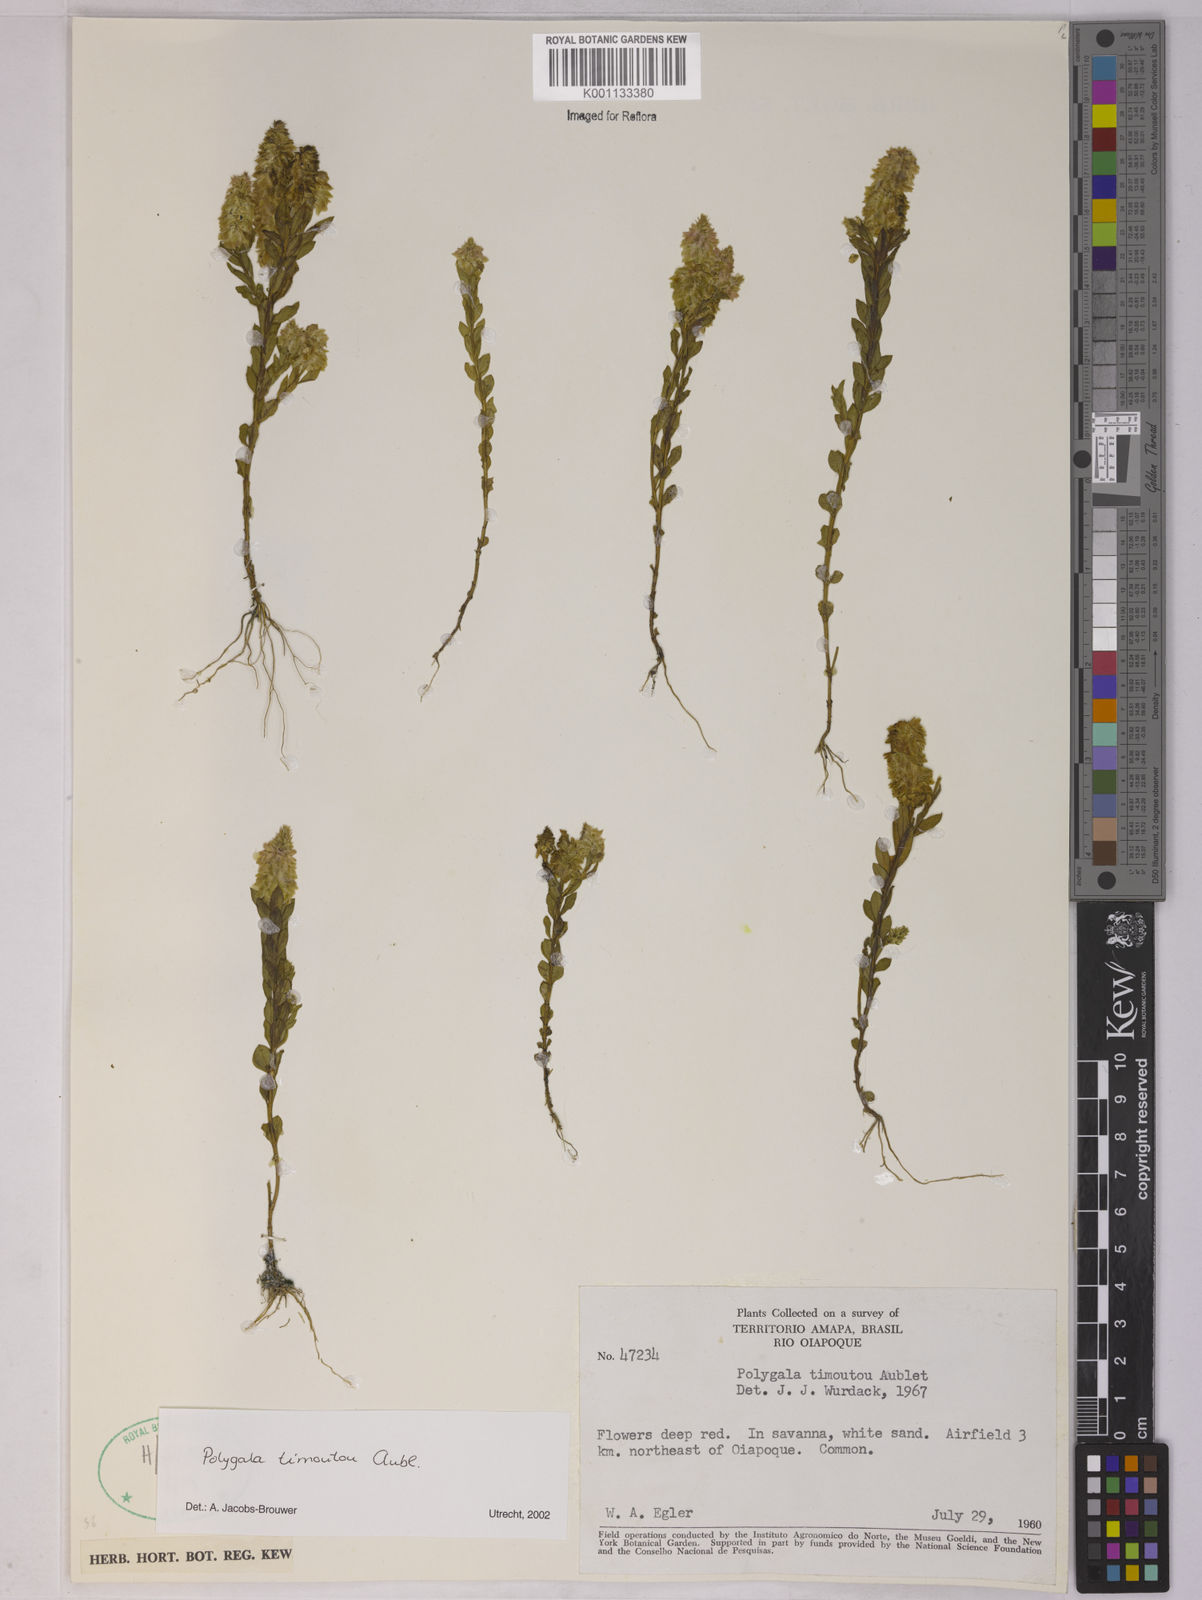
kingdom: Plantae
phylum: Tracheophyta
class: Magnoliopsida
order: Fabales
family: Polygalaceae
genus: Polygala
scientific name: Polygala timoutoides
